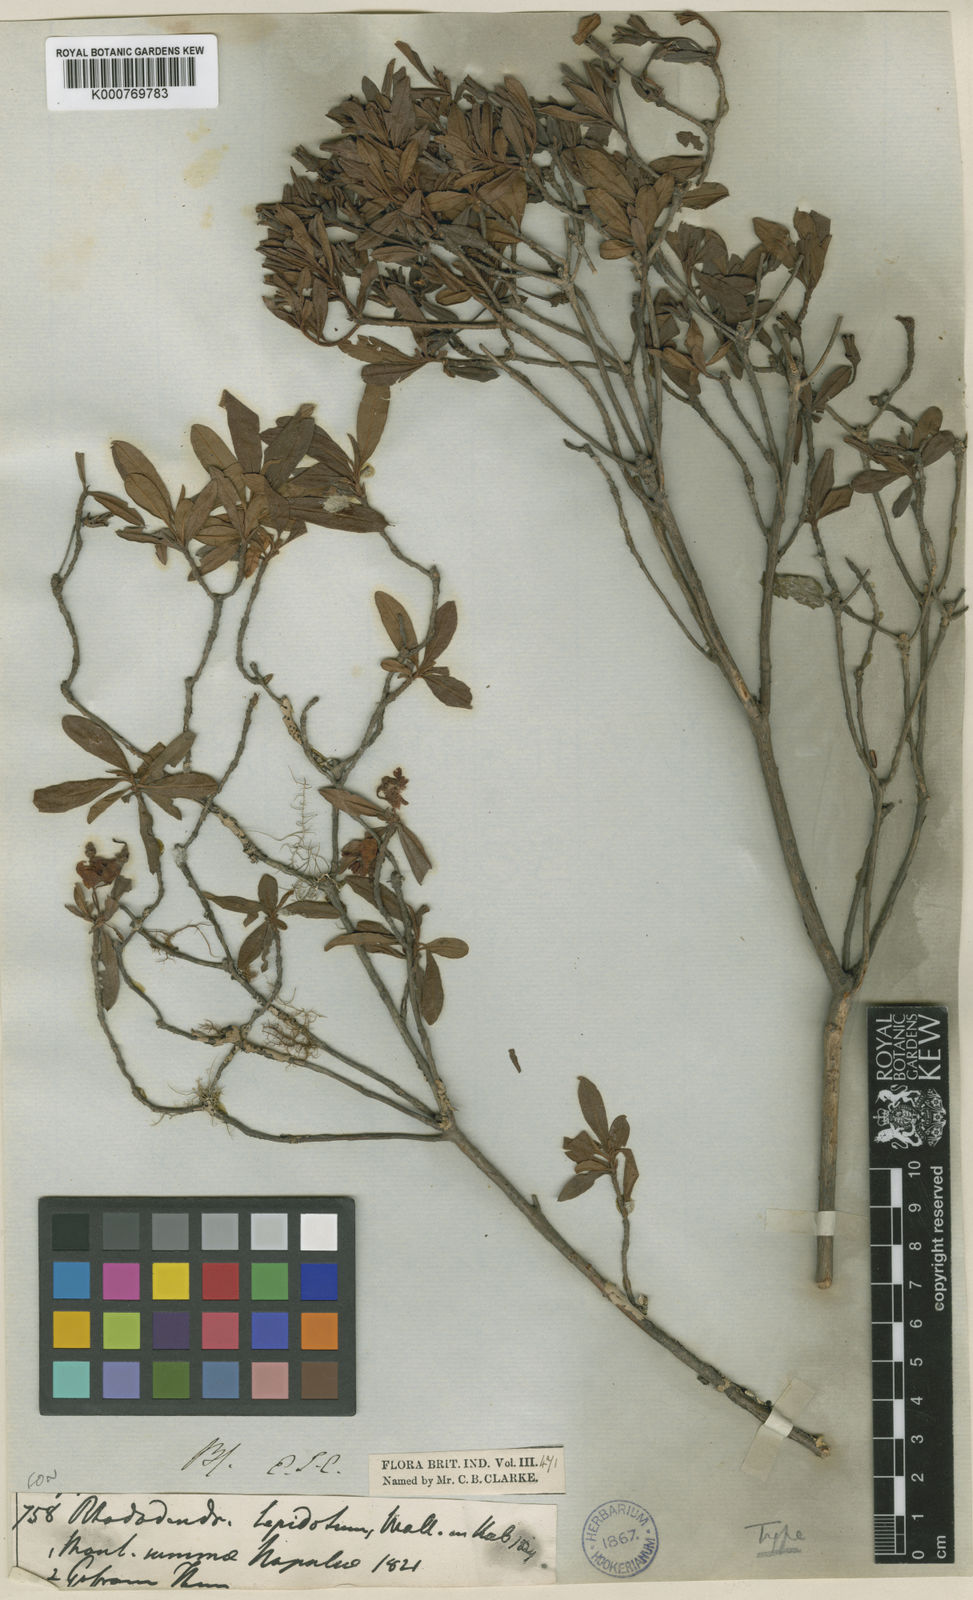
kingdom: Plantae
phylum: Tracheophyta
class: Magnoliopsida
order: Ericales
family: Ericaceae
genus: Rhododendron
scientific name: Rhododendron lepidotum
